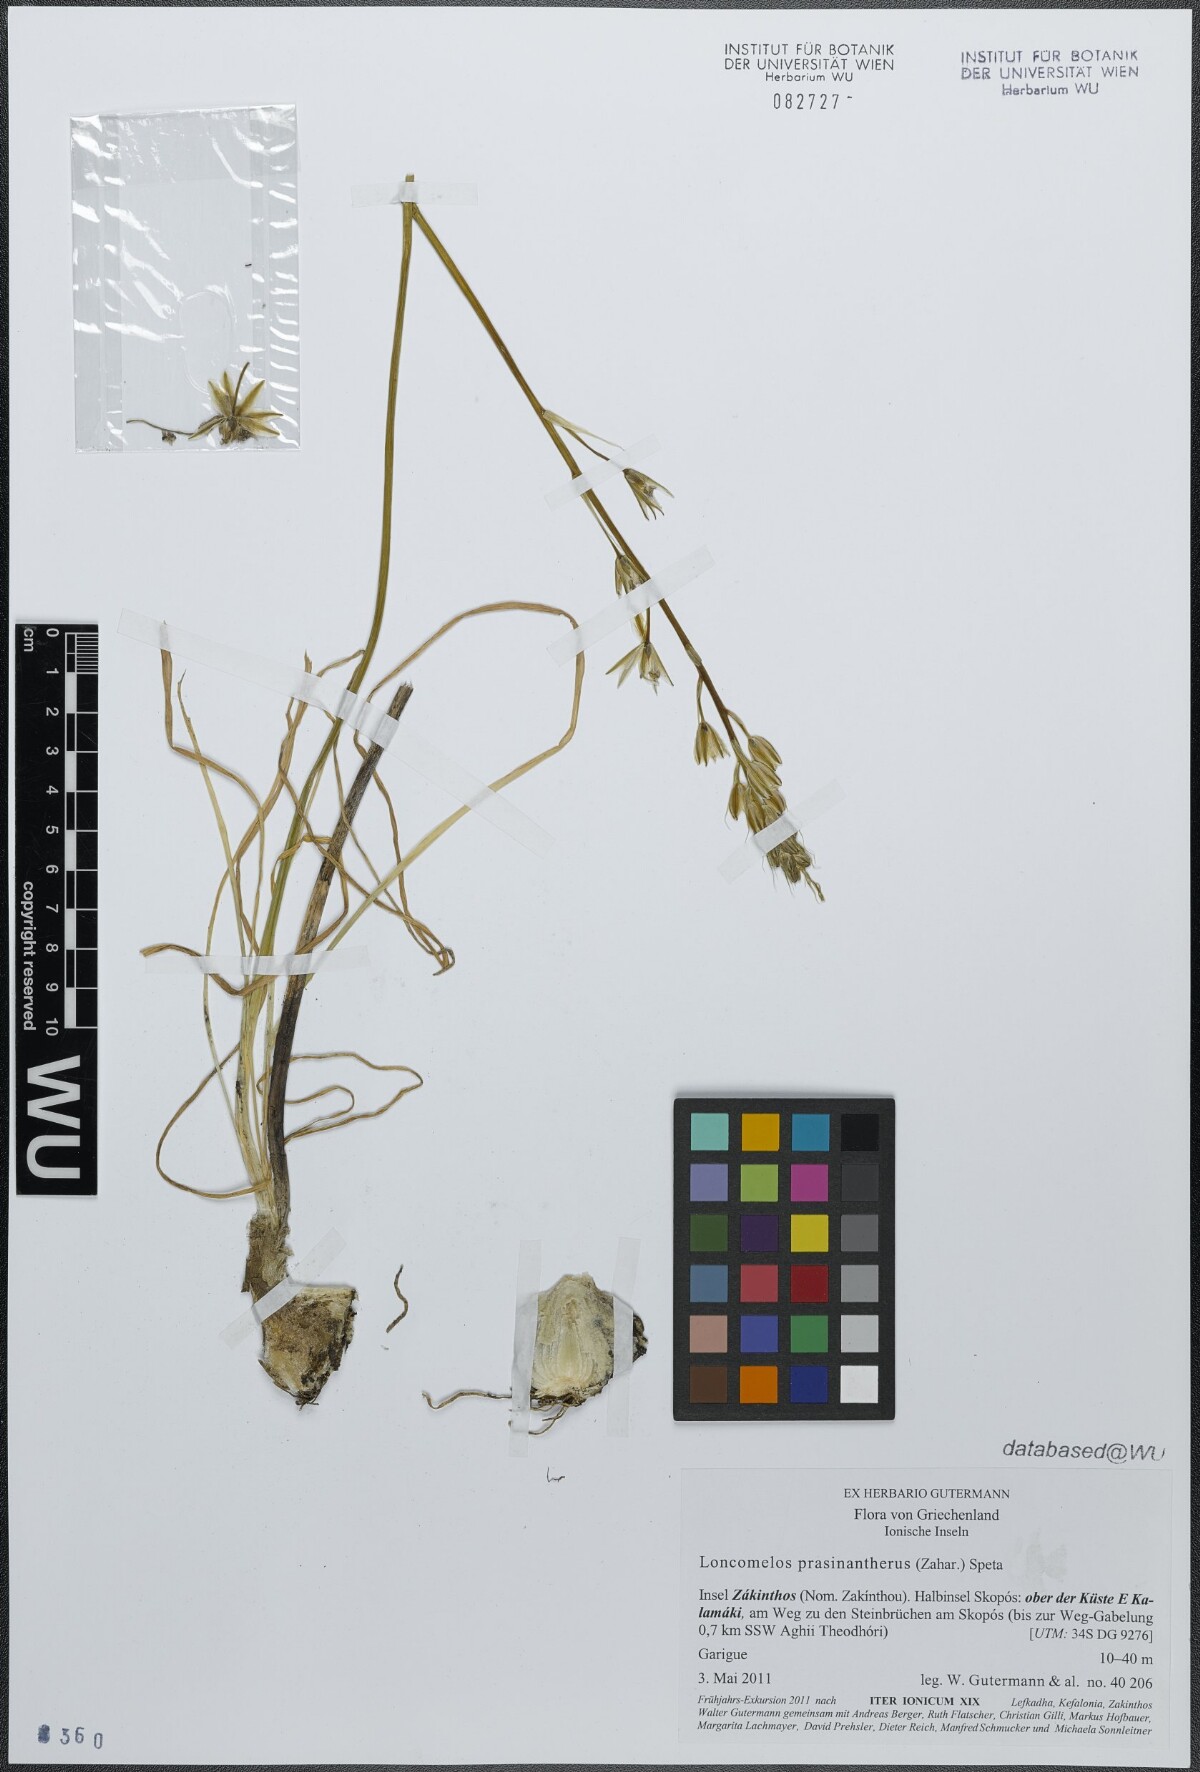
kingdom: Plantae
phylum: Tracheophyta
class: Liliopsida
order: Asparagales
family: Asparagaceae
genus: Ornithogalum
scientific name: Ornithogalum prasinantherum
